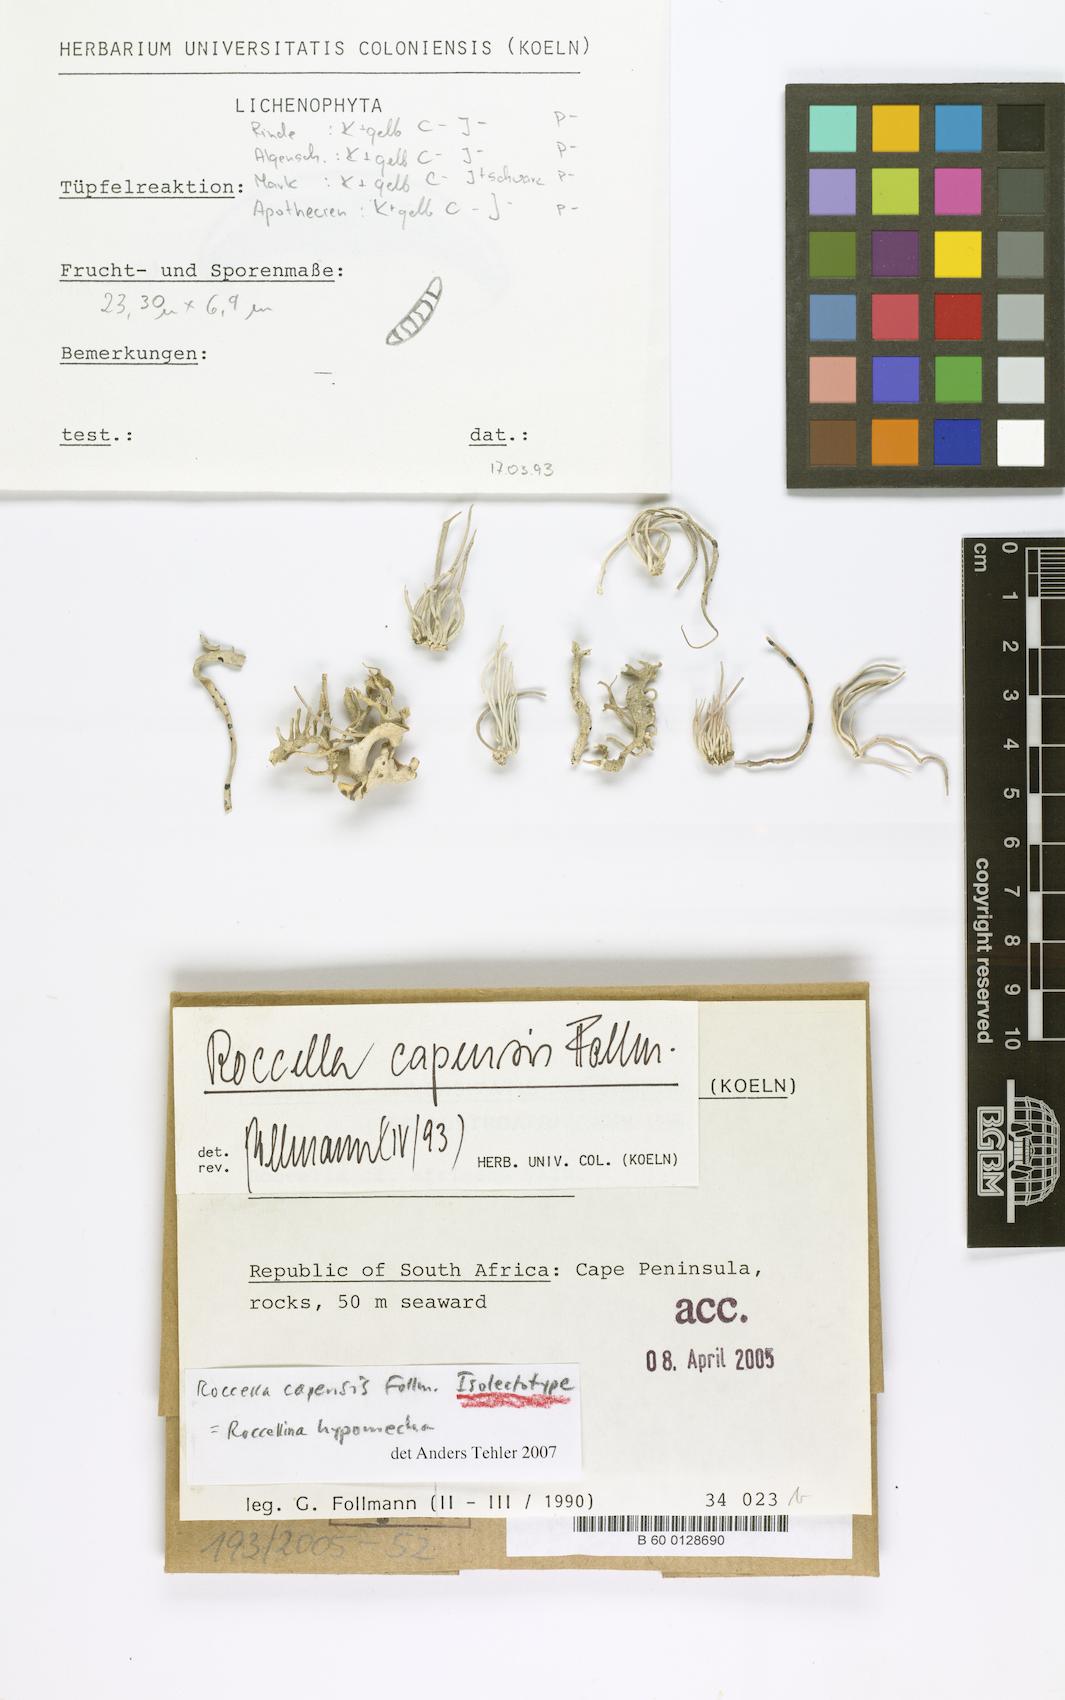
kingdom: Fungi
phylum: Ascomycota
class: Arthoniomycetes
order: Arthoniales
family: Roccellaceae
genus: Roccellina
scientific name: Roccellina capensis
